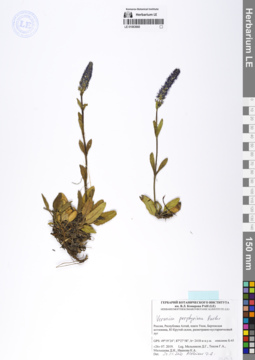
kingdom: Plantae
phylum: Tracheophyta
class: Magnoliopsida
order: Lamiales
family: Plantaginaceae
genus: Veronica
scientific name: Veronica porphyriana
